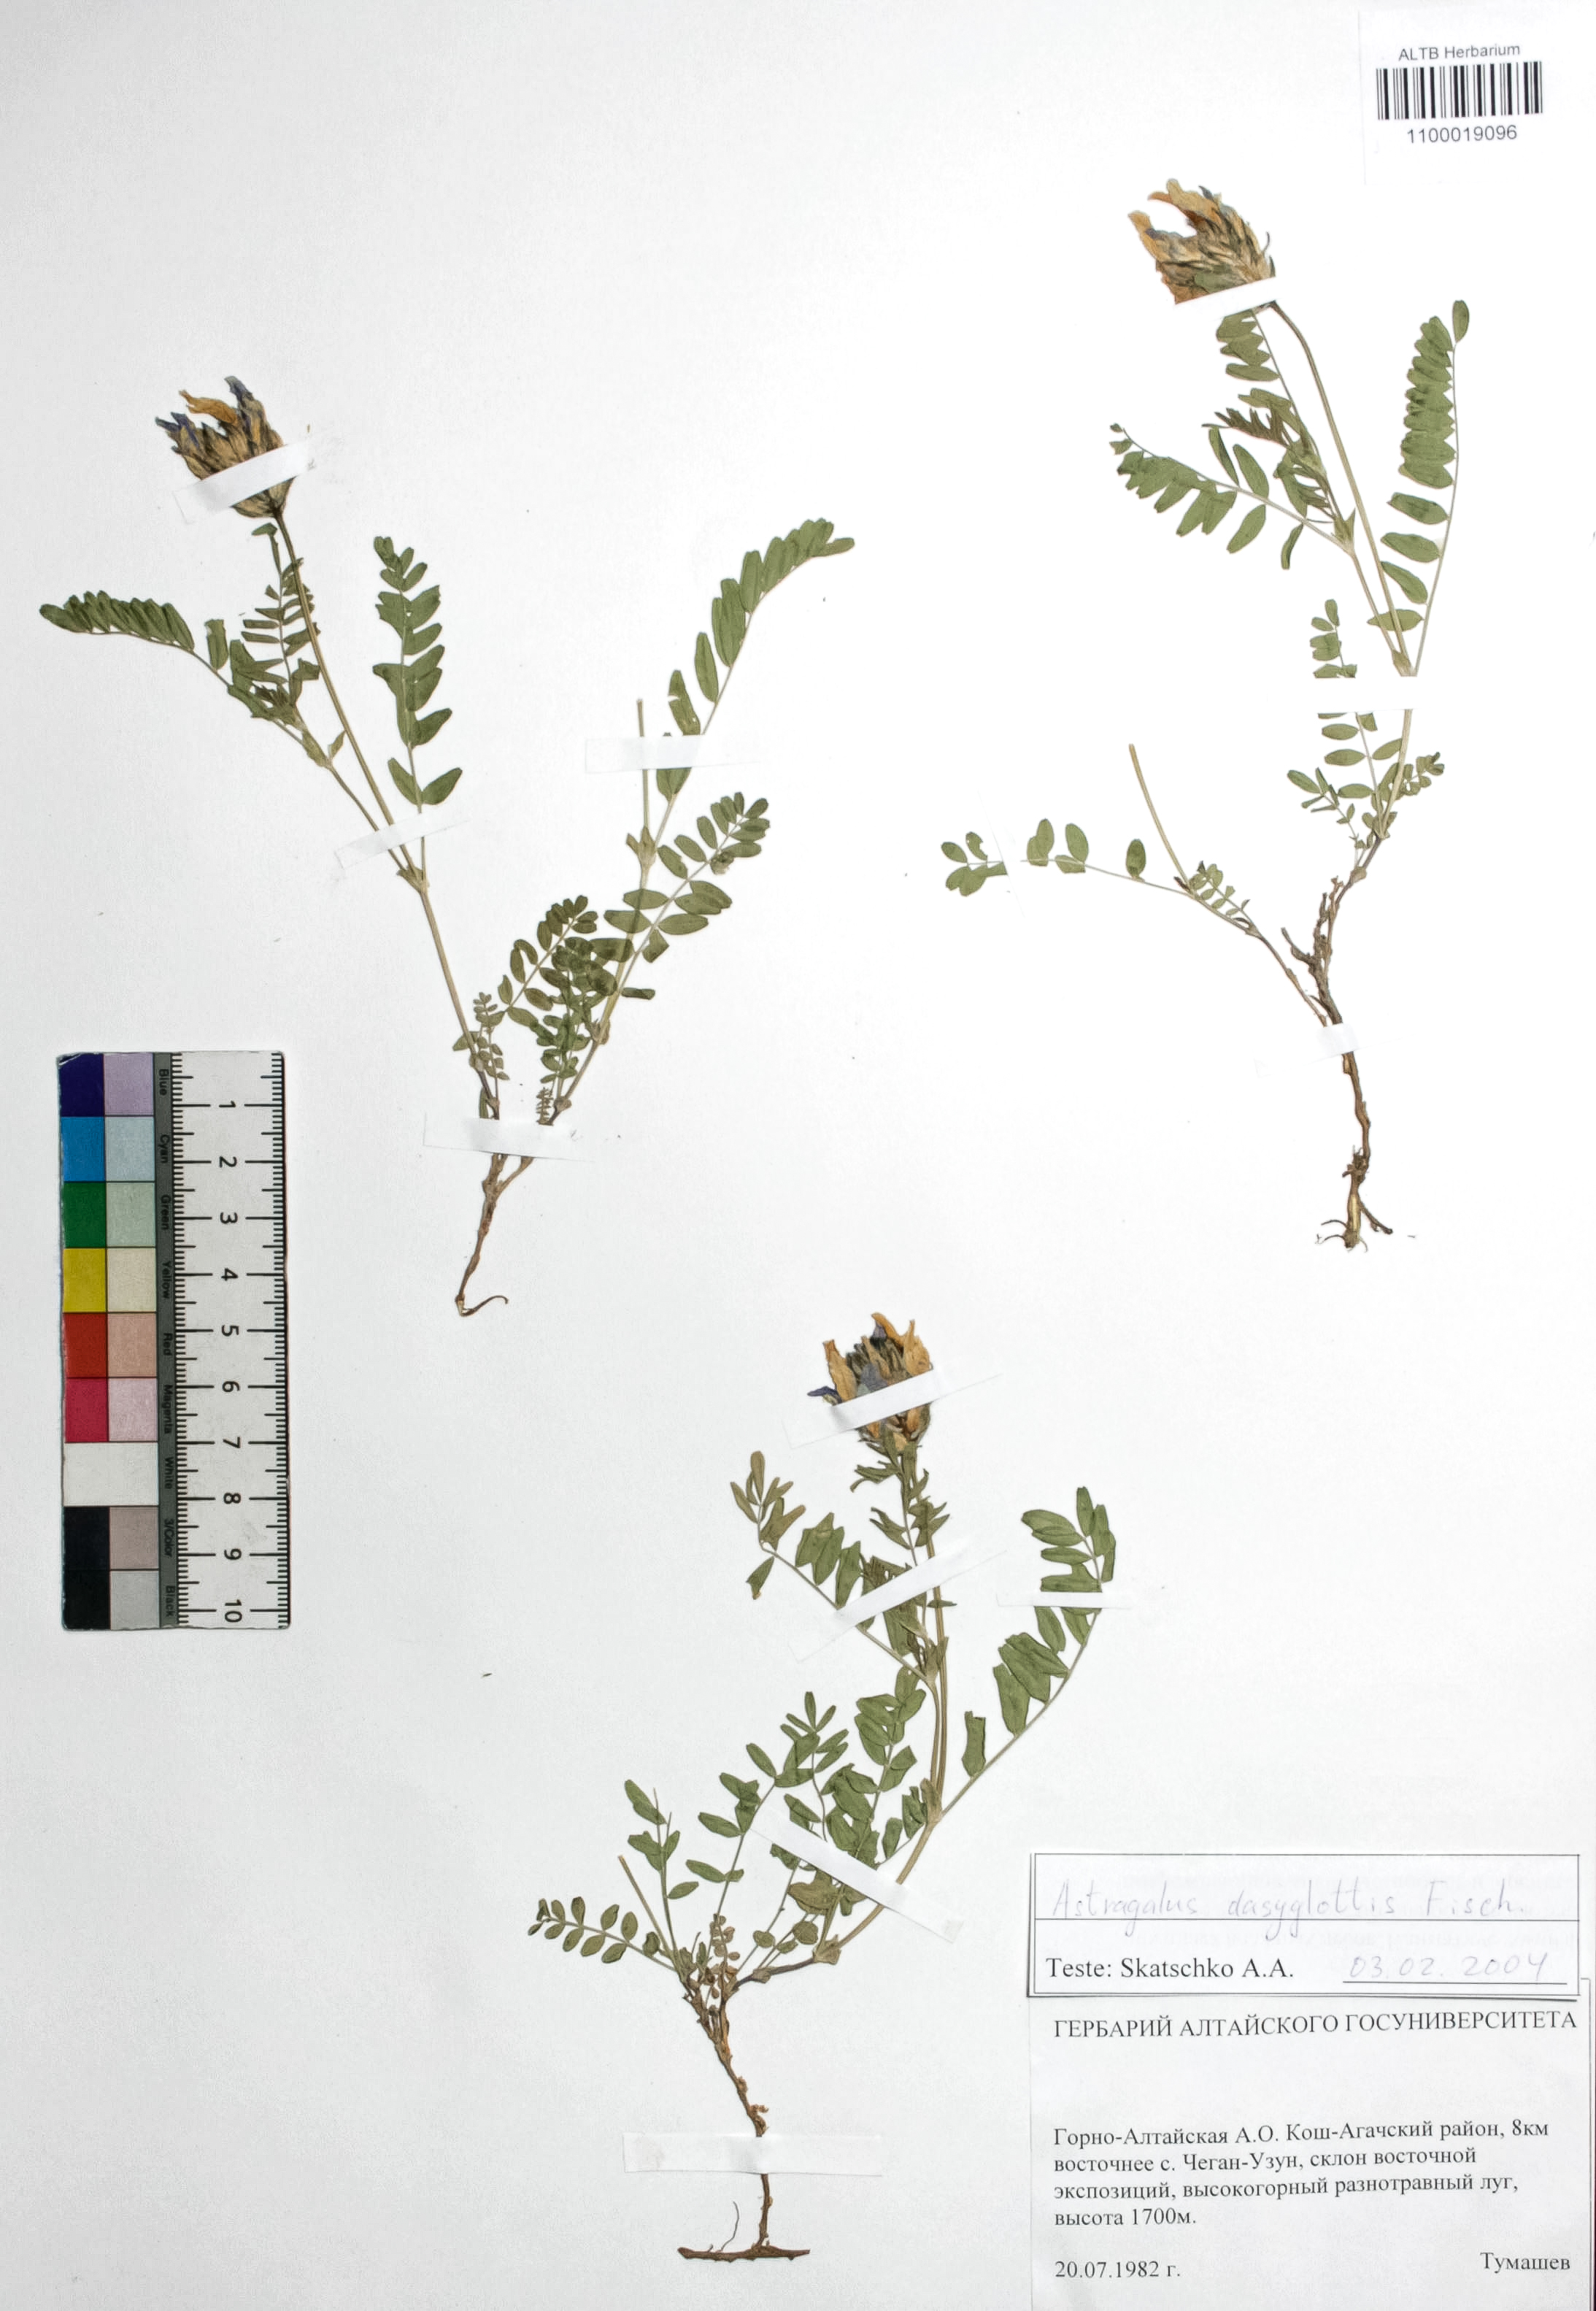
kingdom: Plantae
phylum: Tracheophyta
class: Magnoliopsida
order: Fabales
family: Fabaceae
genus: Astragalus
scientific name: Astragalus agrestis
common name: Field milk-vetch
